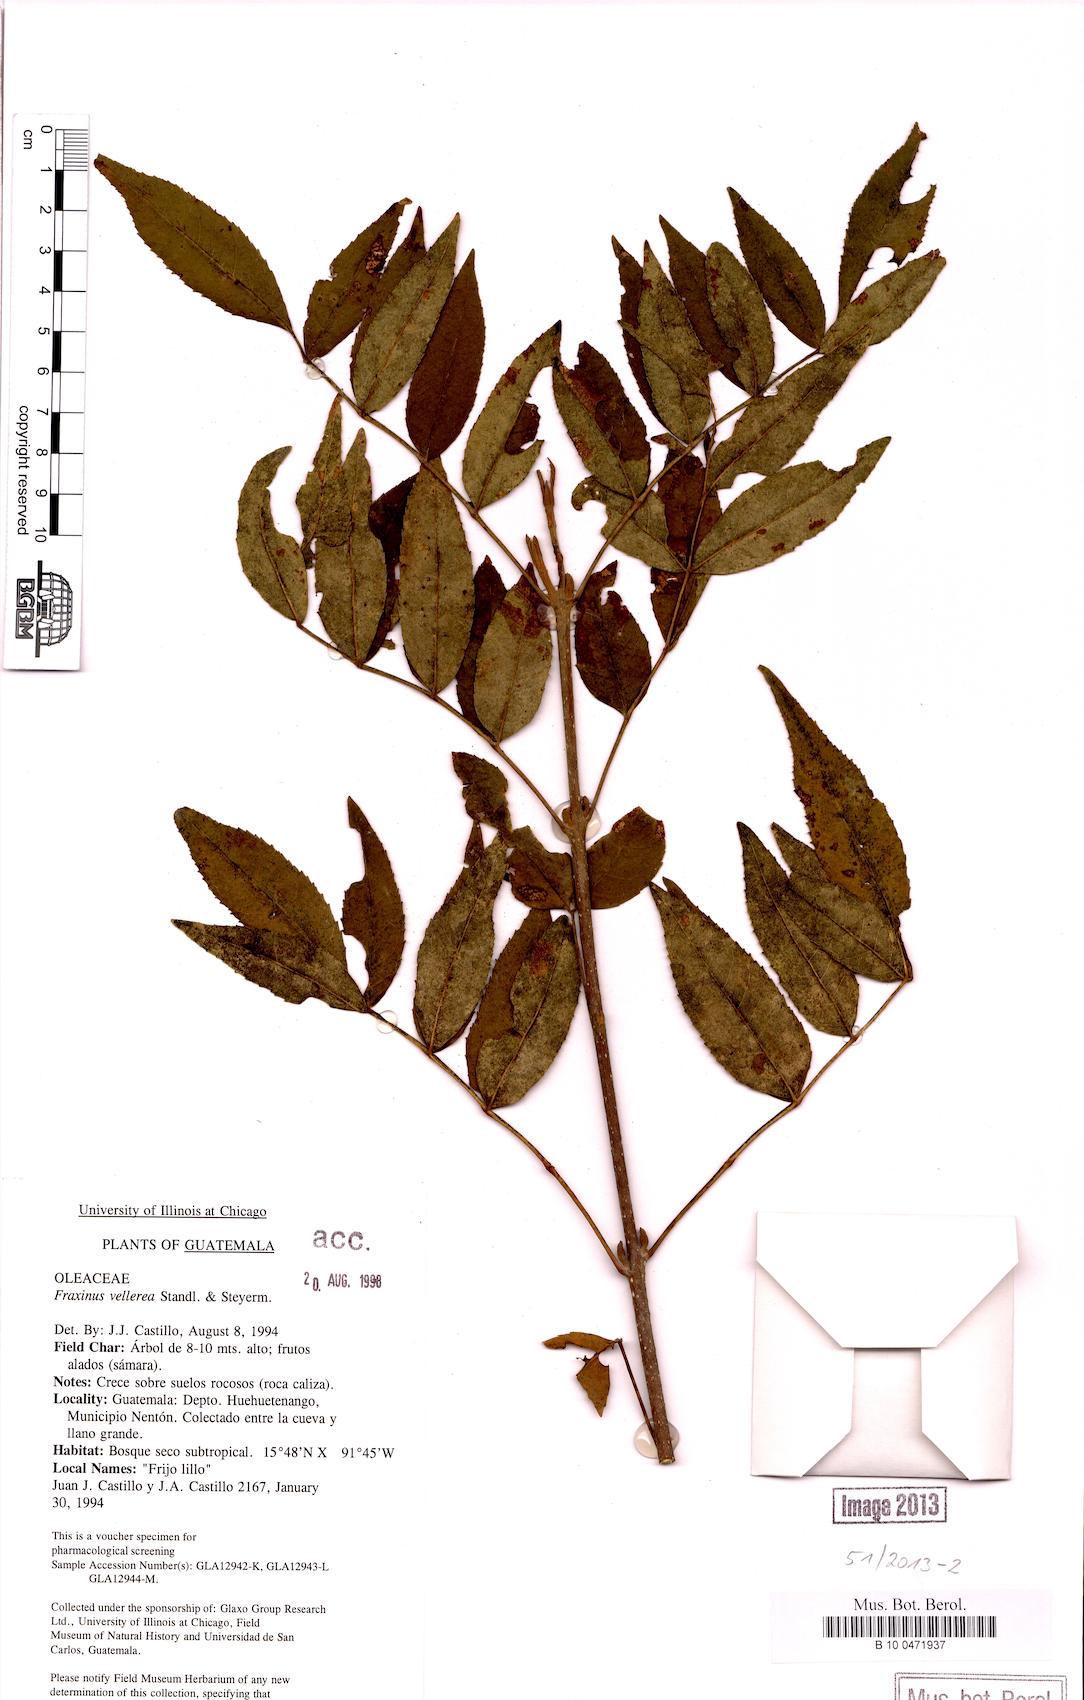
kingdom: Plantae
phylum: Tracheophyta
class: Magnoliopsida
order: Lamiales
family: Oleaceae
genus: Fraxinus
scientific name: Fraxinus purpusii
